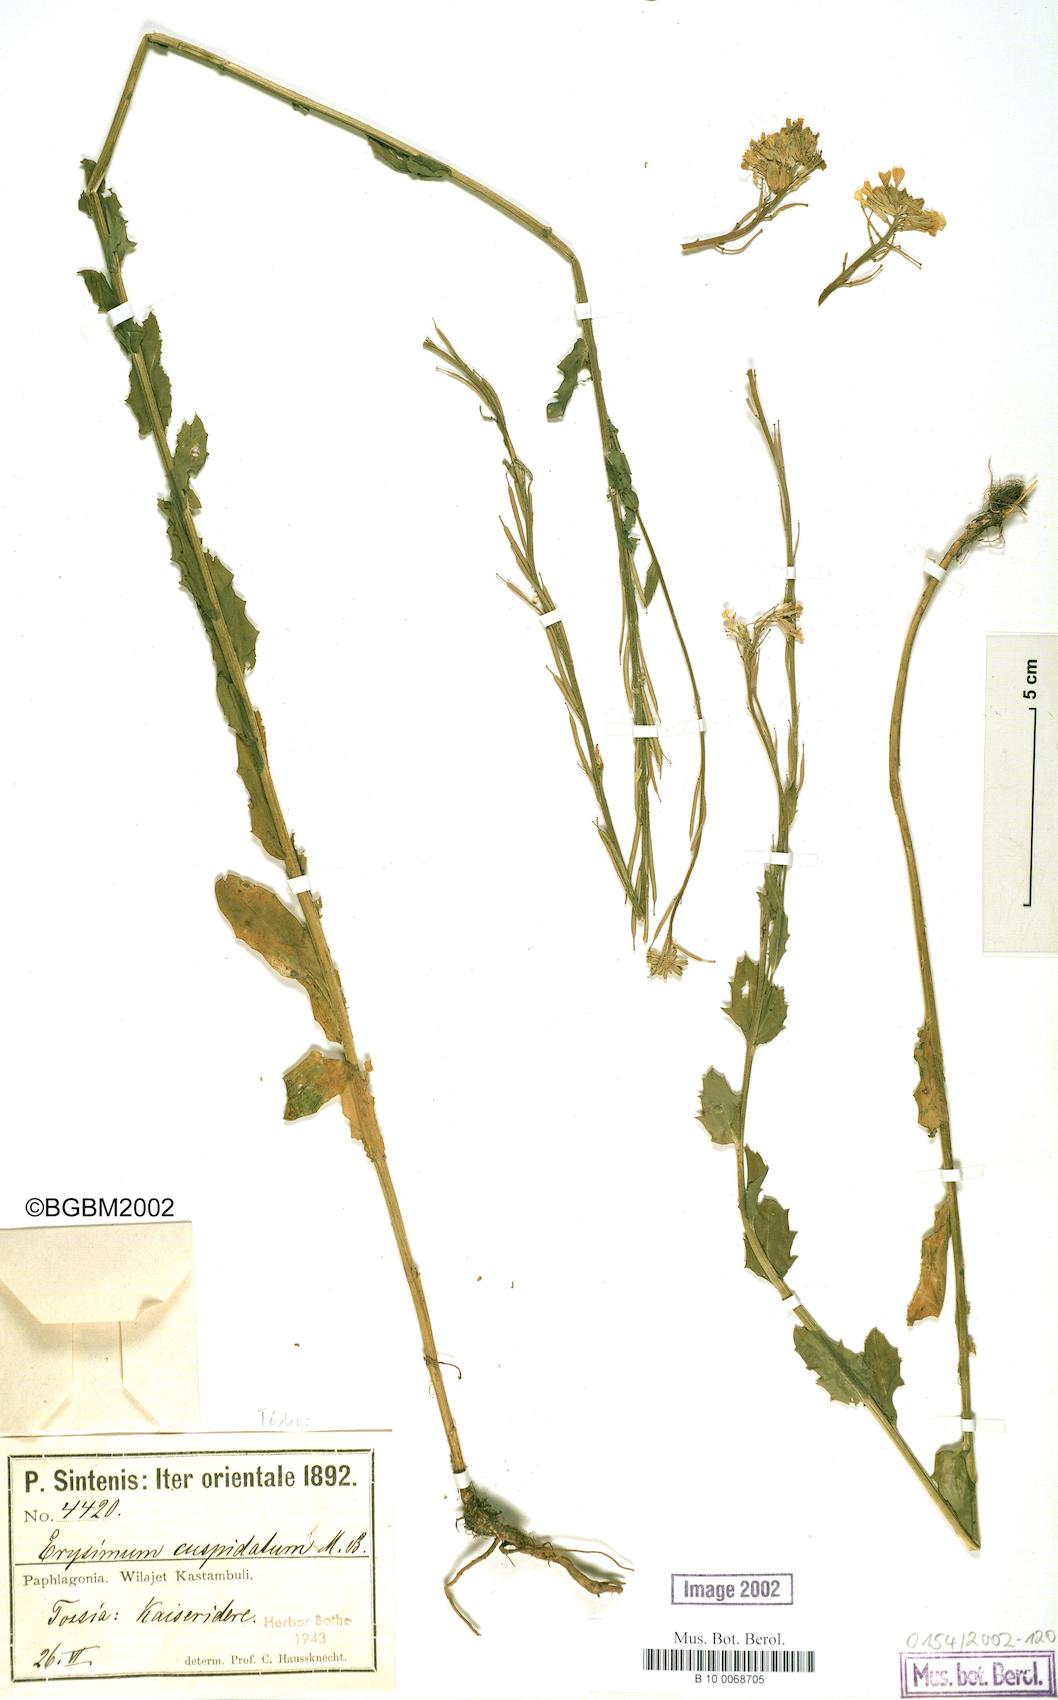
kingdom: Plantae
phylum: Tracheophyta
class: Magnoliopsida
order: Brassicales
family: Brassicaceae
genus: Erysimum
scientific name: Erysimum cuspidatum
